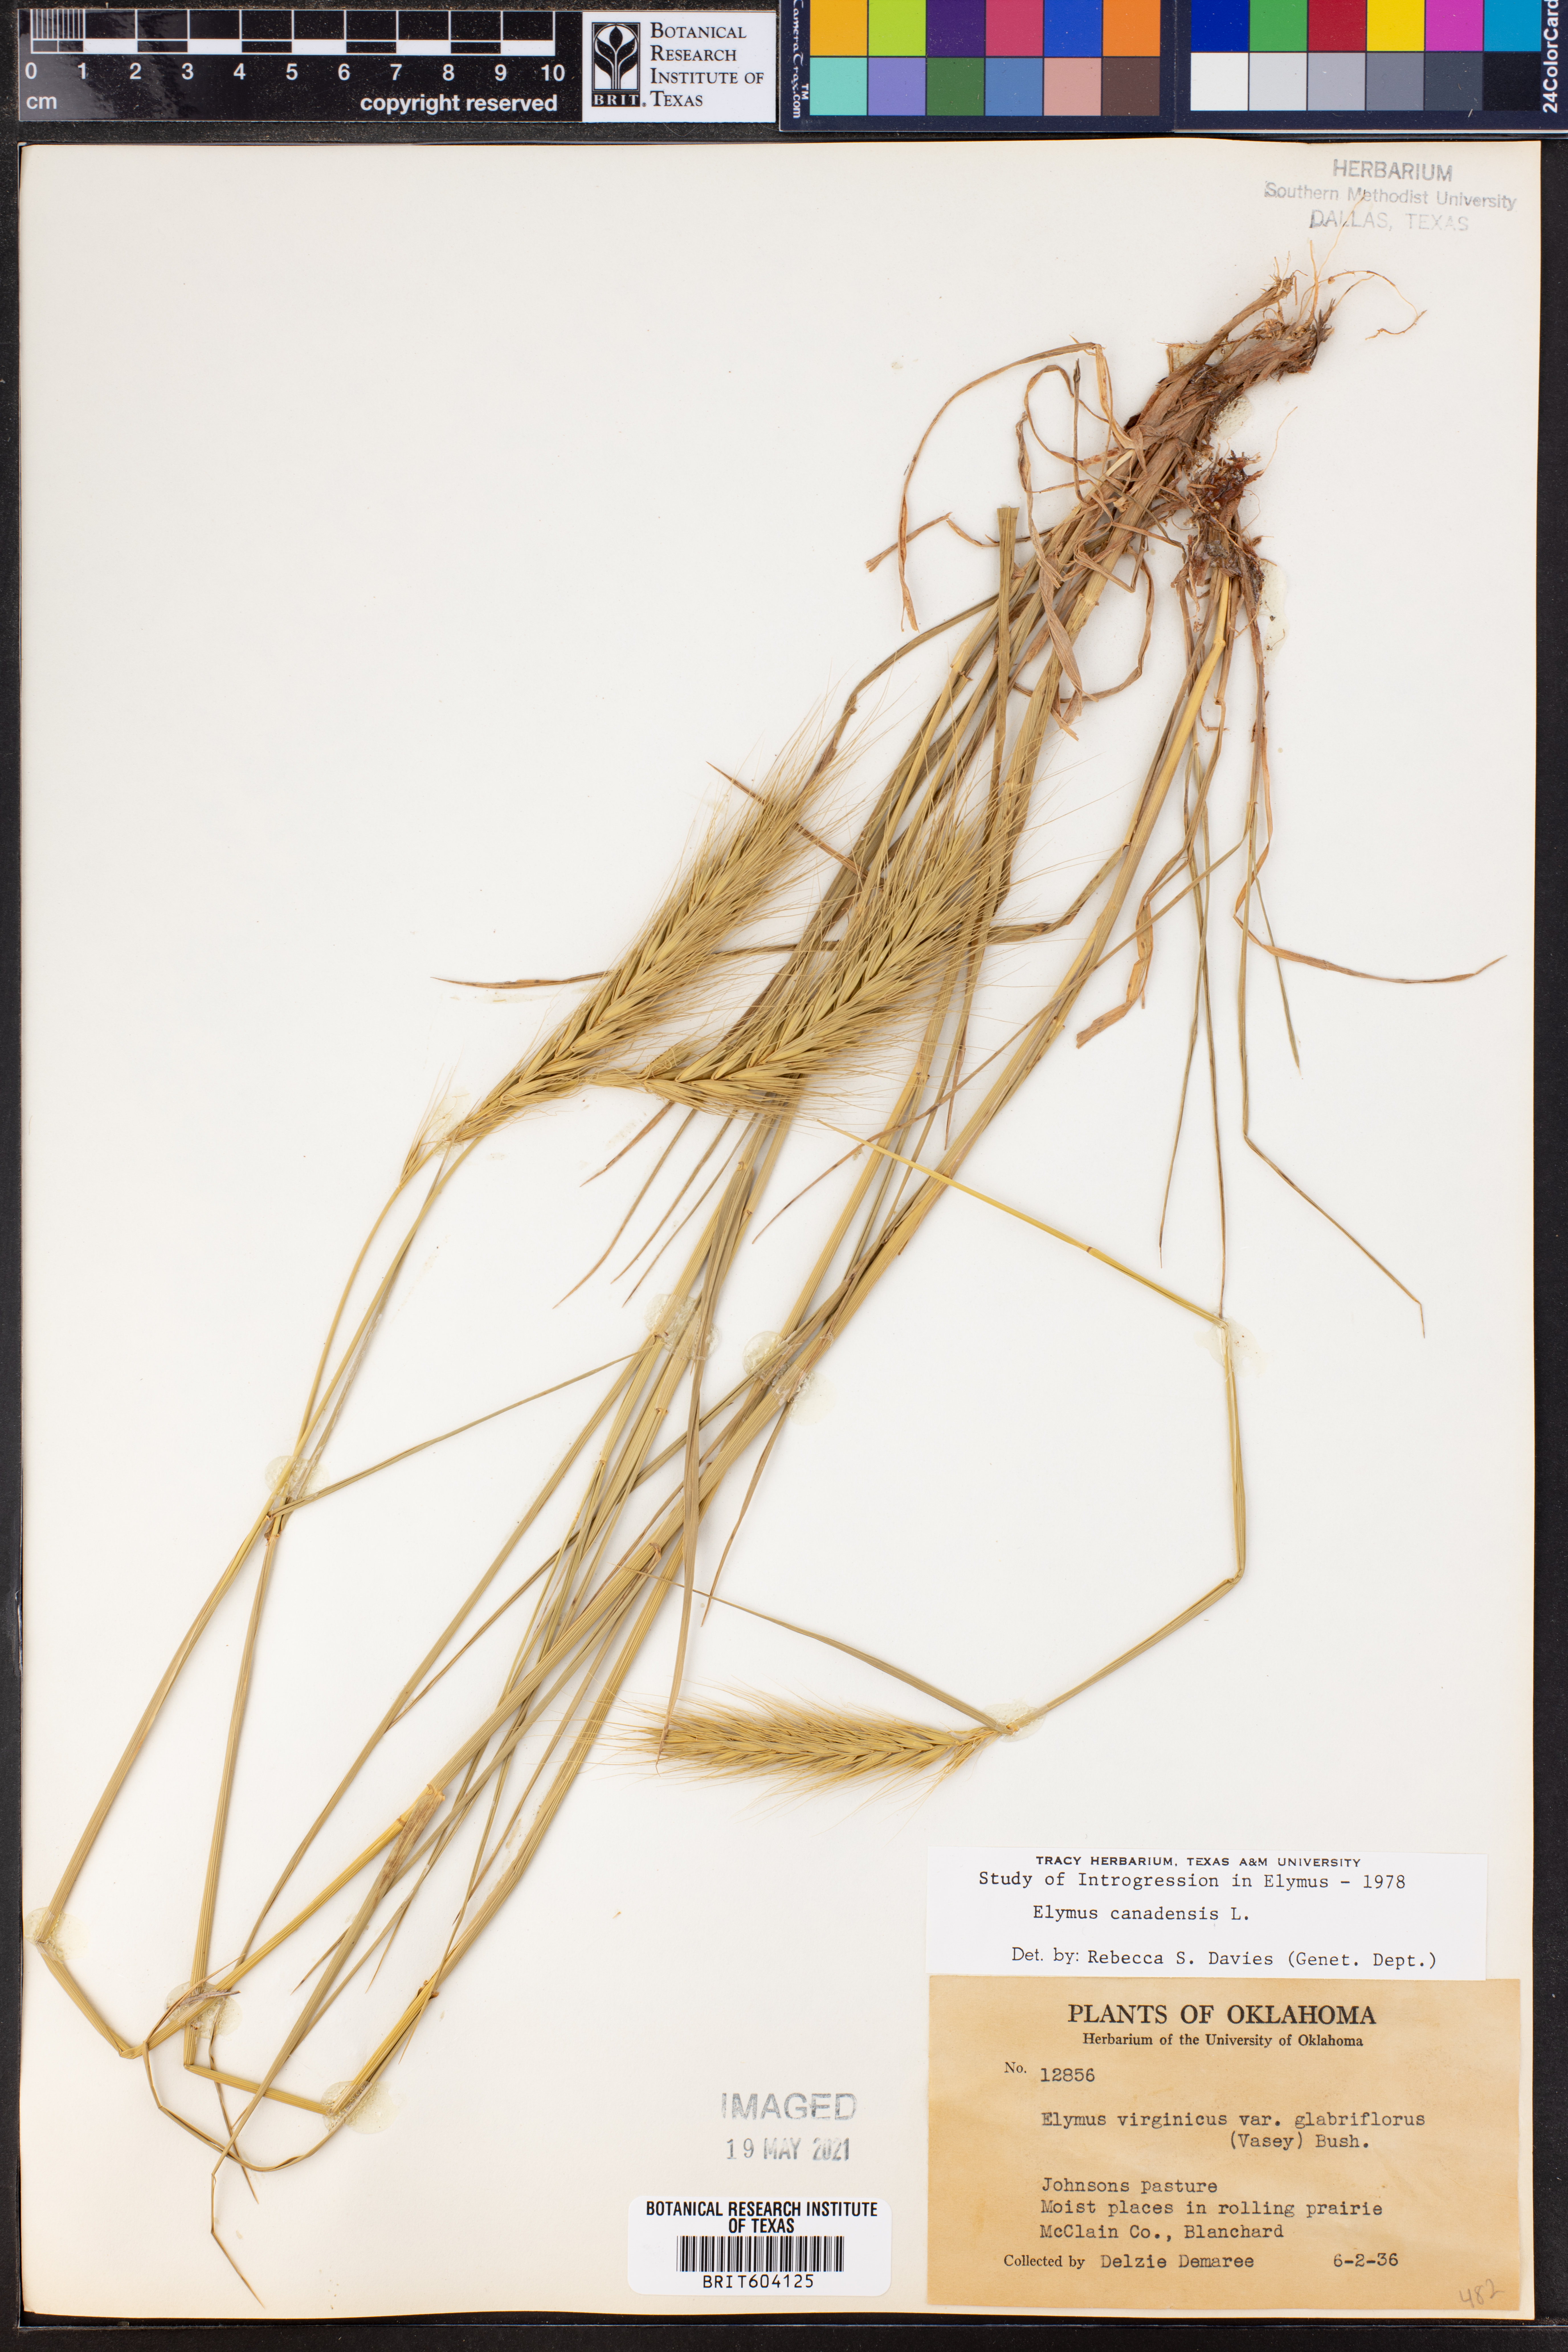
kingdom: Plantae
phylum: Tracheophyta
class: Liliopsida
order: Poales
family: Poaceae
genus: Elymus
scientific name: Elymus canadensis
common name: Canada wild rye
